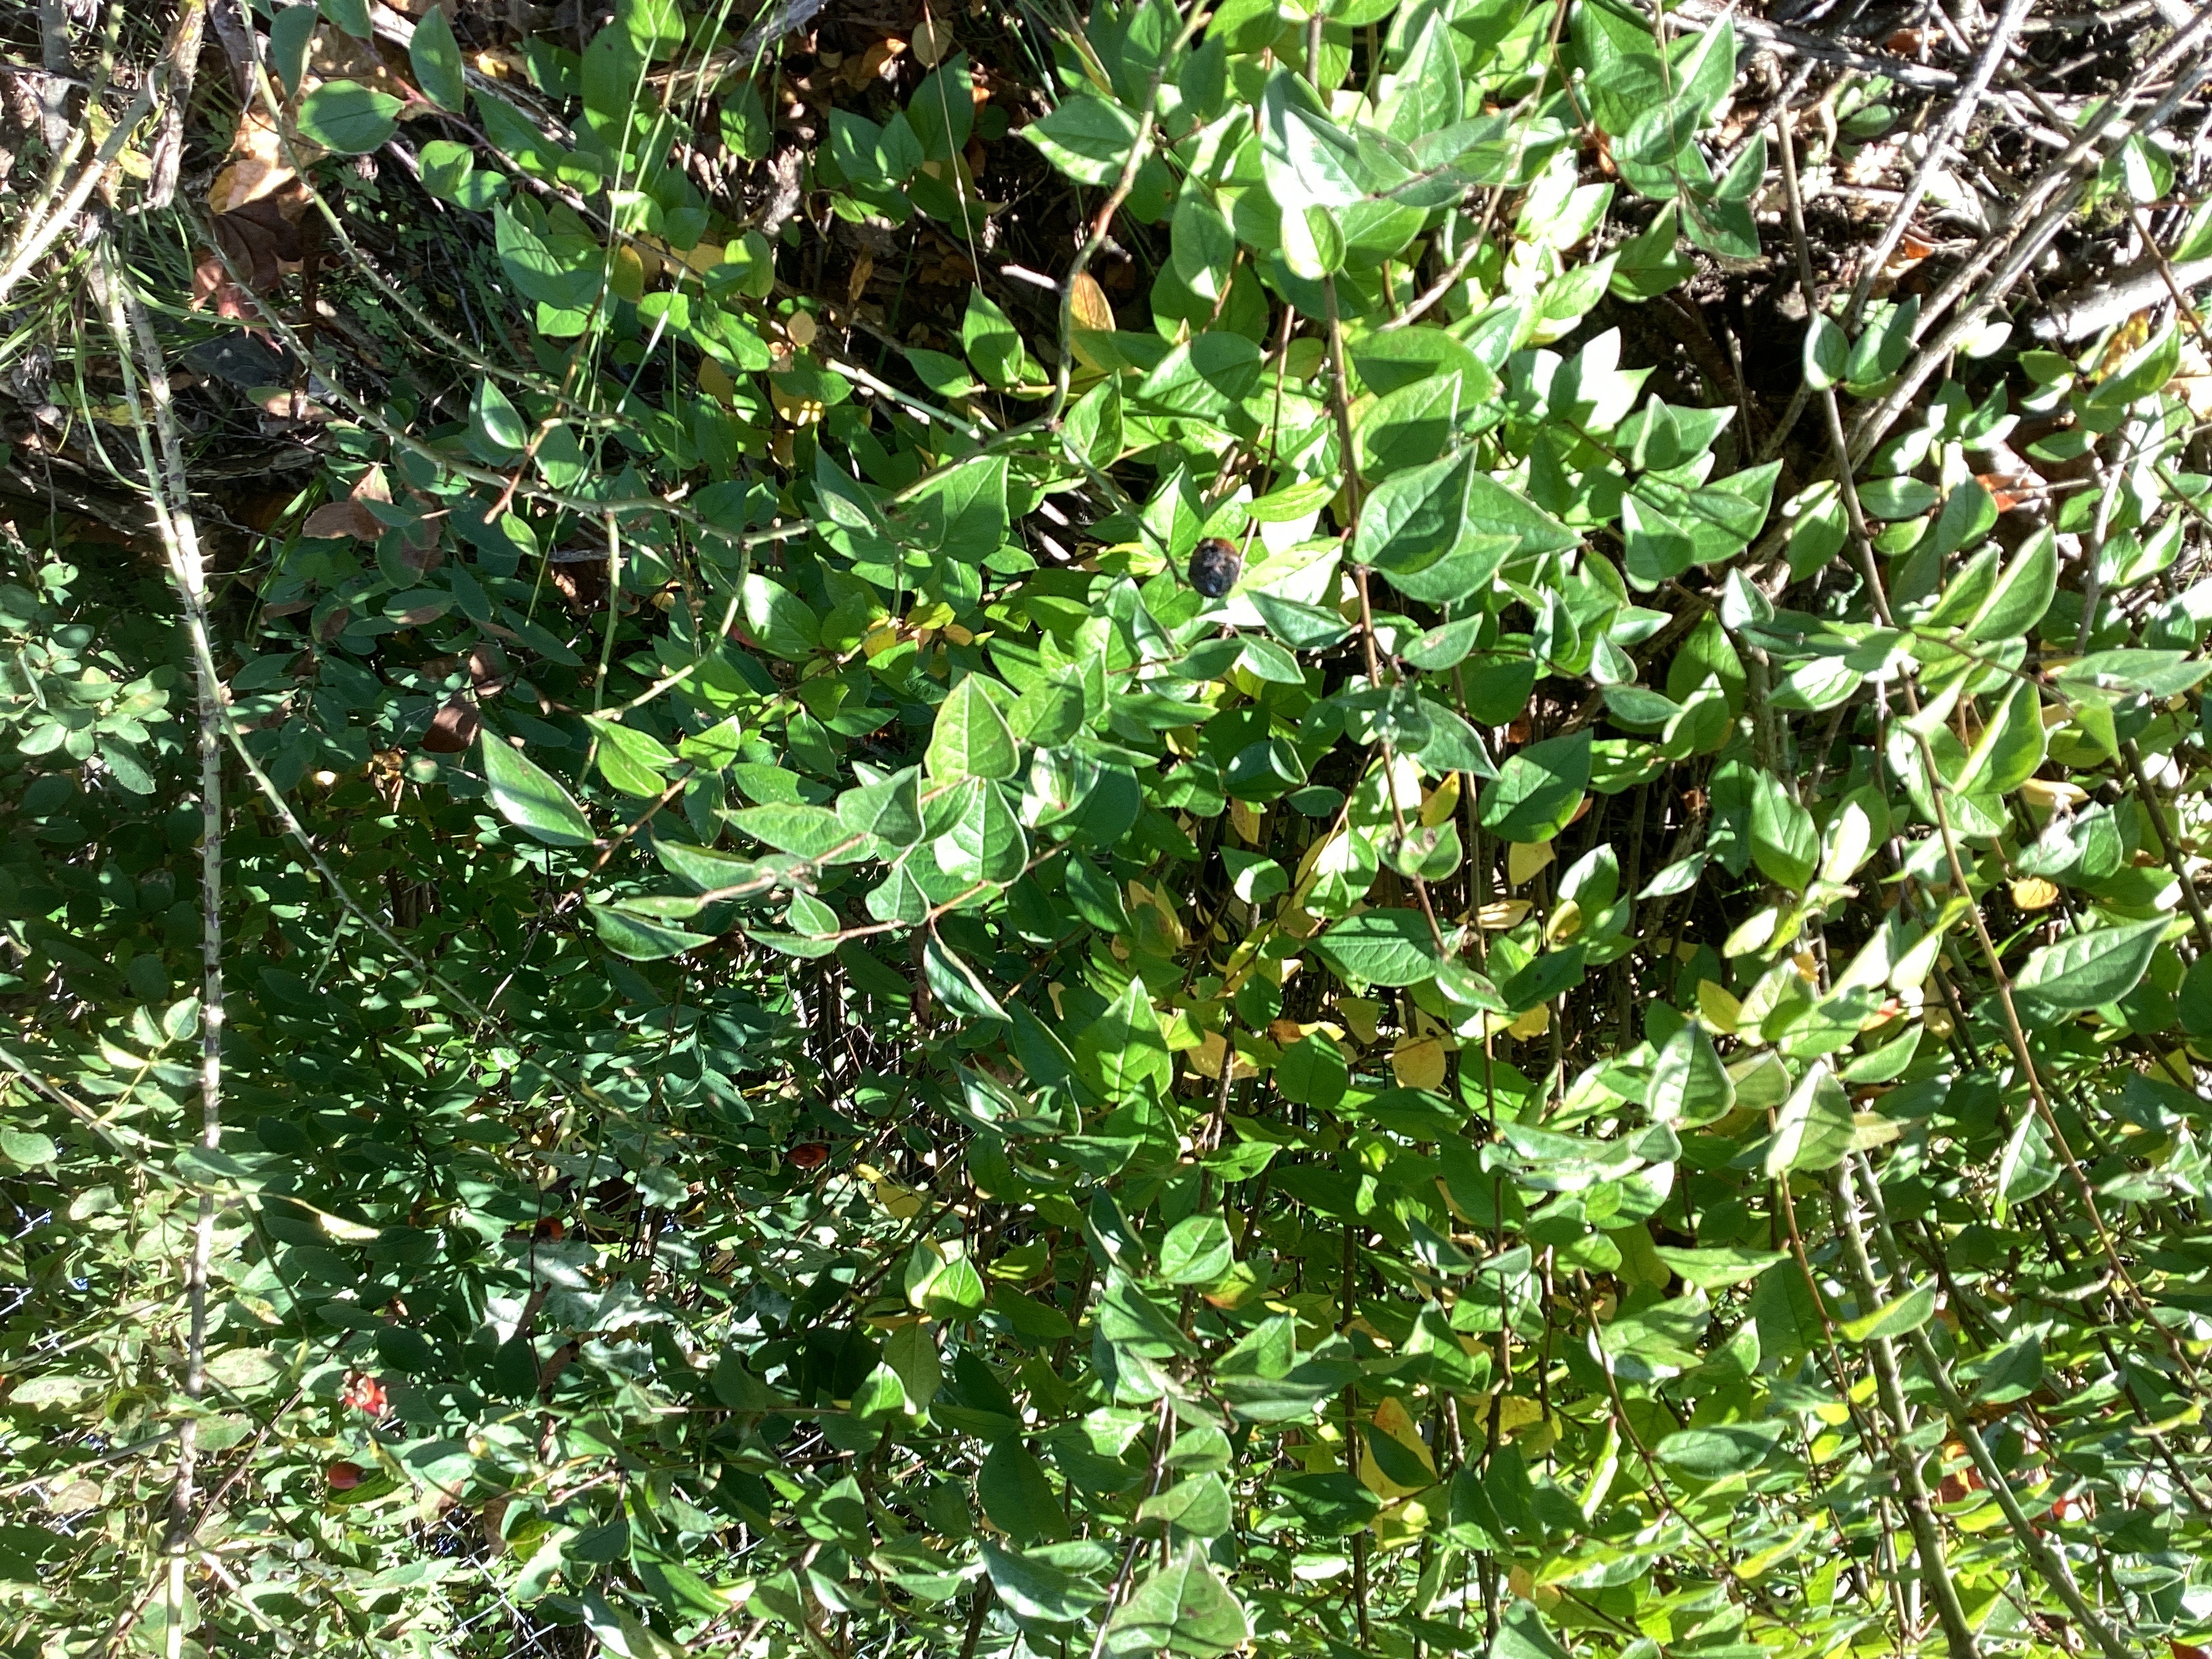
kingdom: Plantae
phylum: Tracheophyta
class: Magnoliopsida
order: Rosales
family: Rosaceae
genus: Cotoneaster
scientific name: Cotoneaster acutifolius
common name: blankmispel
